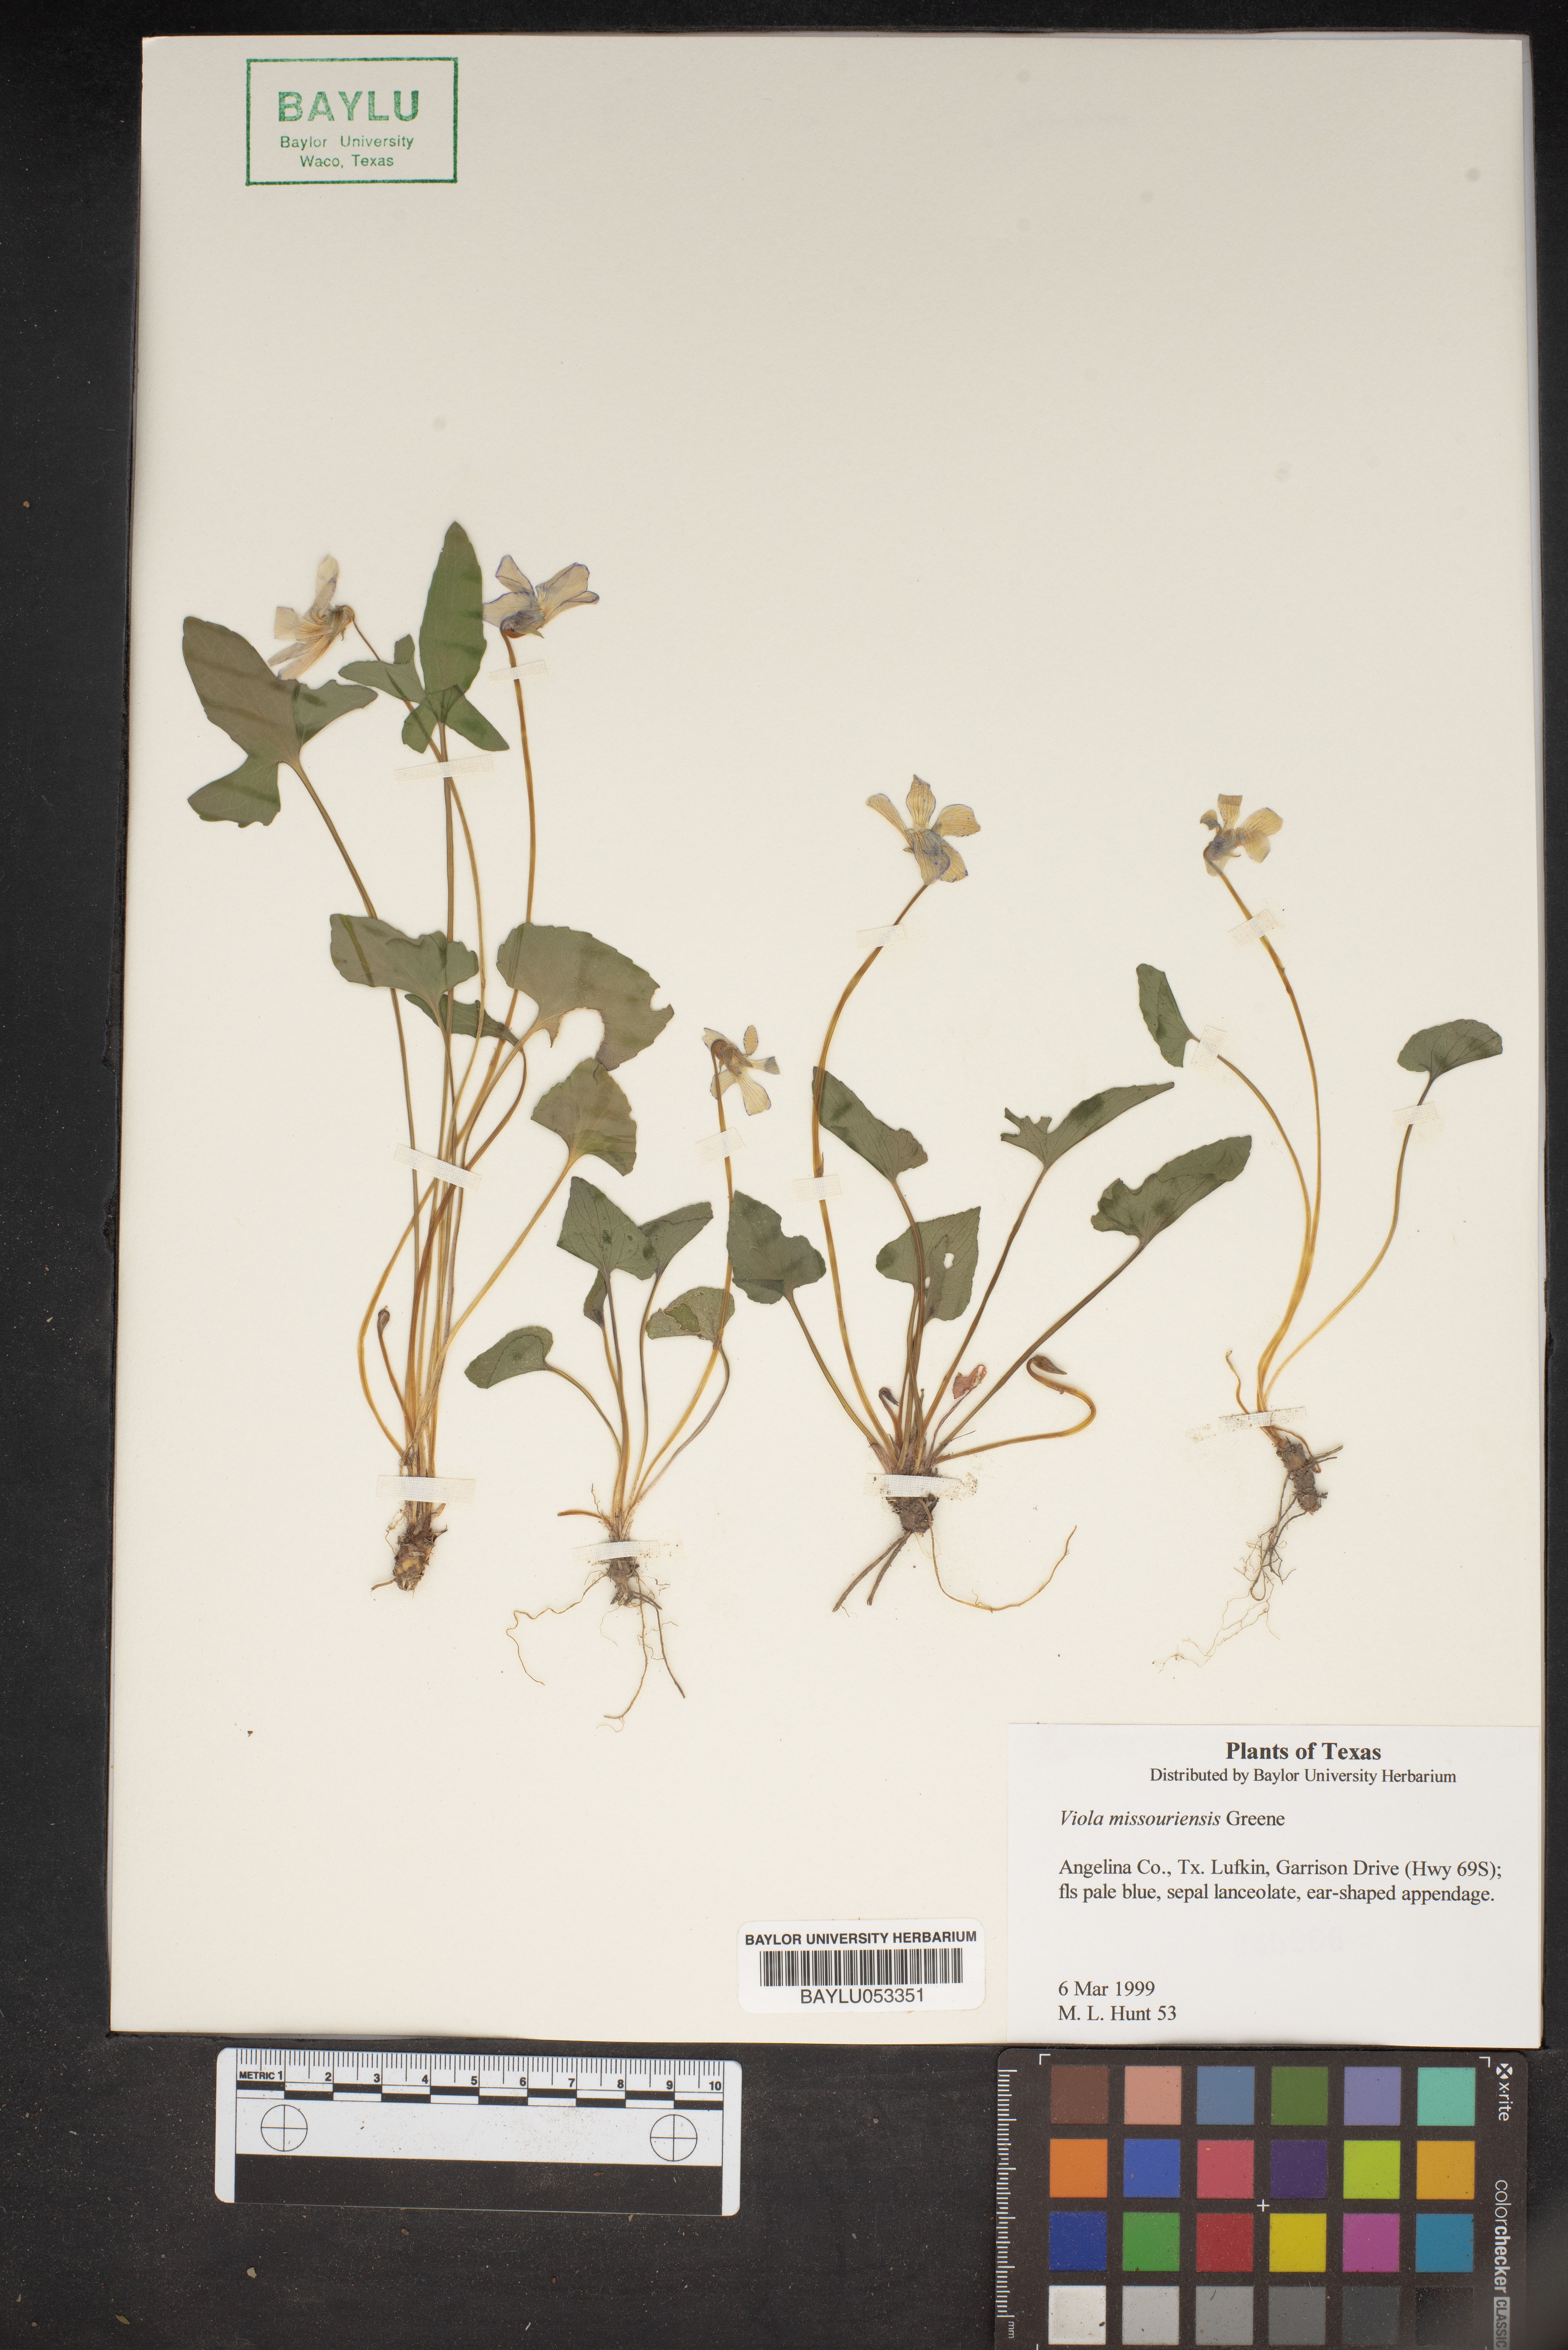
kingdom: Plantae
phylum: Tracheophyta
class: Magnoliopsida
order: Malpighiales
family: Violaceae
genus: Viola
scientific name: Viola missouriensis
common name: Missouri violet
